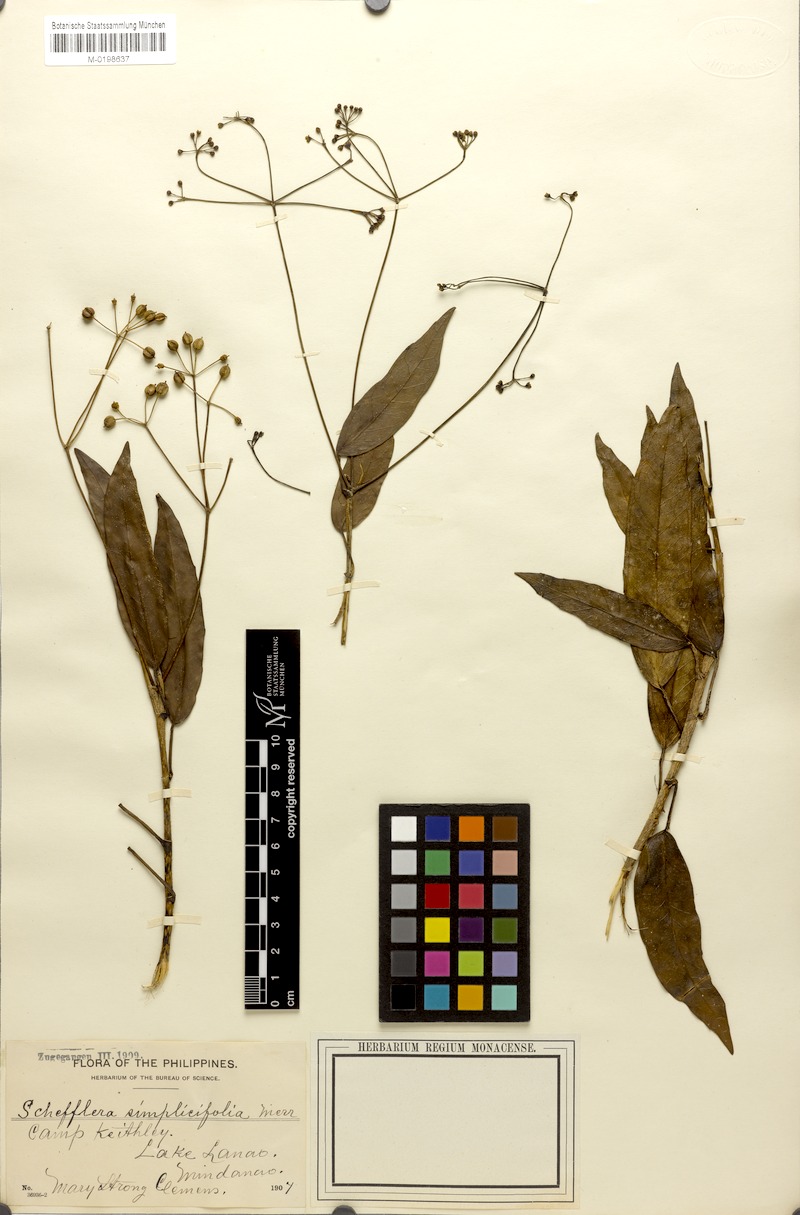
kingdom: Plantae
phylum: Tracheophyta
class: Magnoliopsida
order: Apiales
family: Araliaceae
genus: Heptapleurum
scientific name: Heptapleurum simplicifolium
